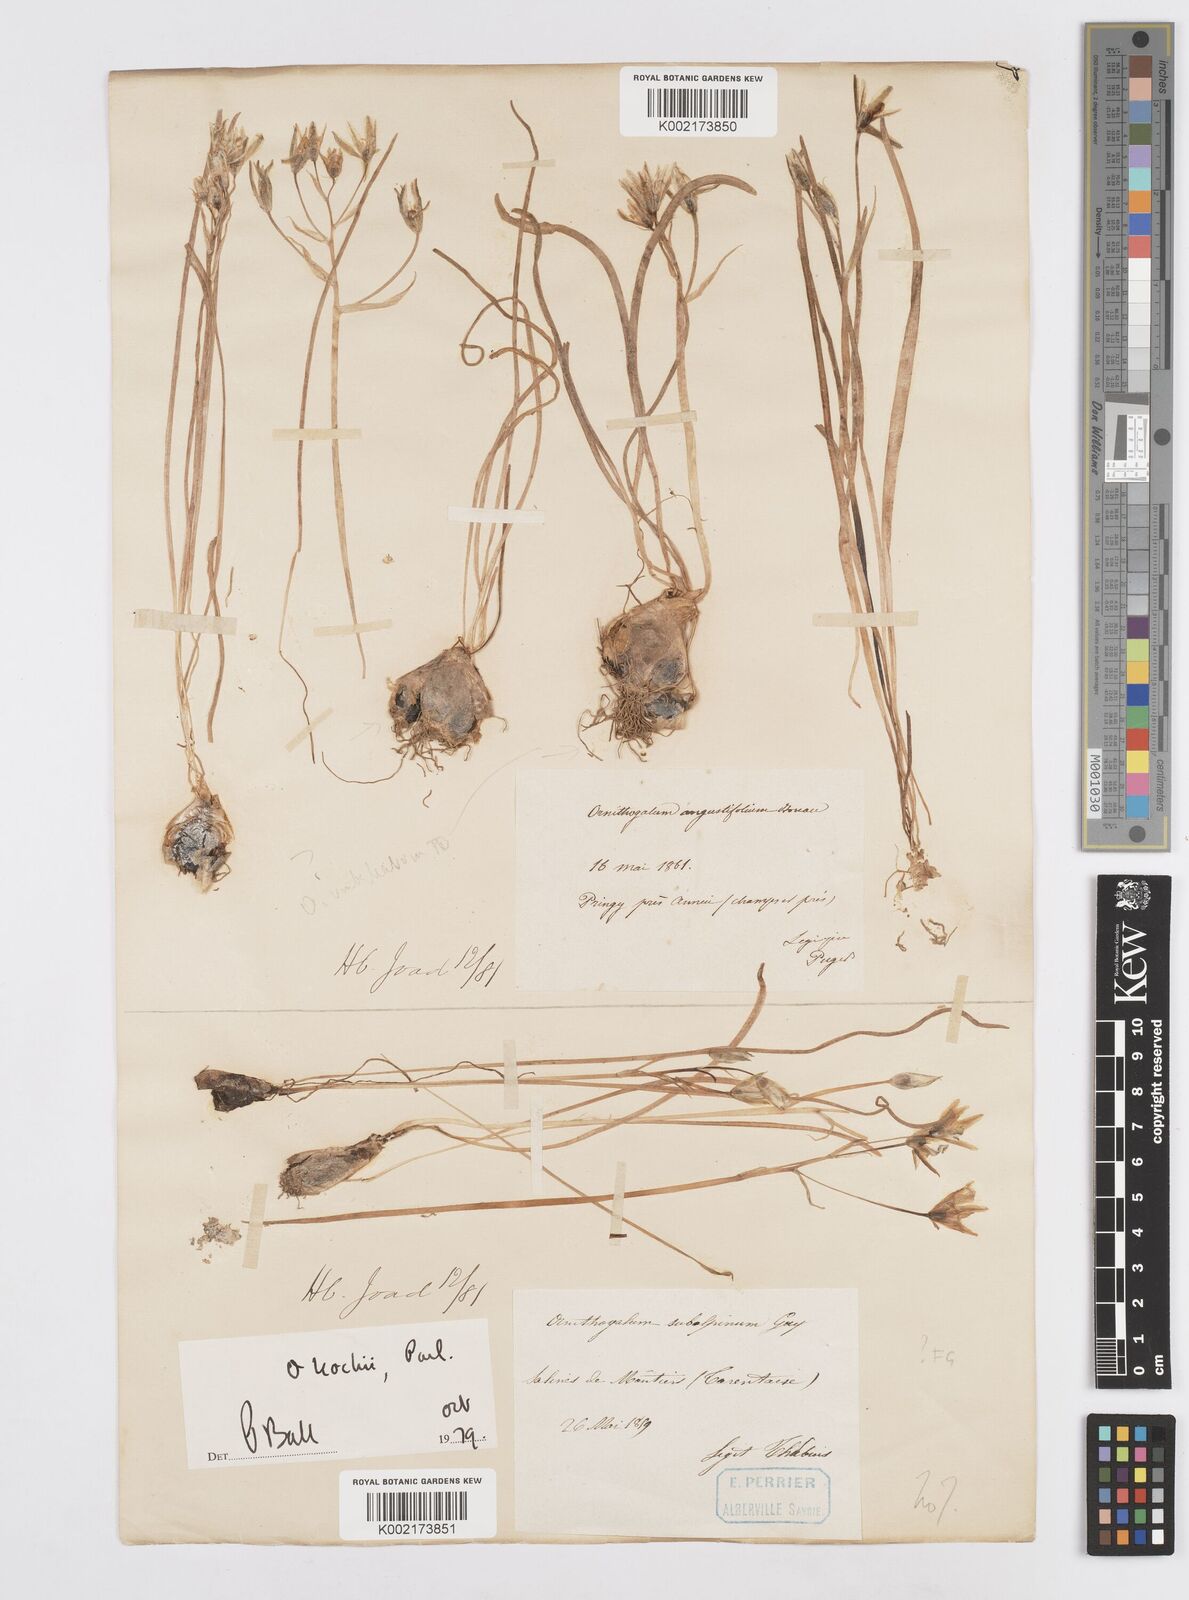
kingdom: Plantae
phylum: Tracheophyta
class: Liliopsida
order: Asparagales
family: Asparagaceae
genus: Ornithogalum
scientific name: Ornithogalum orthophyllum
